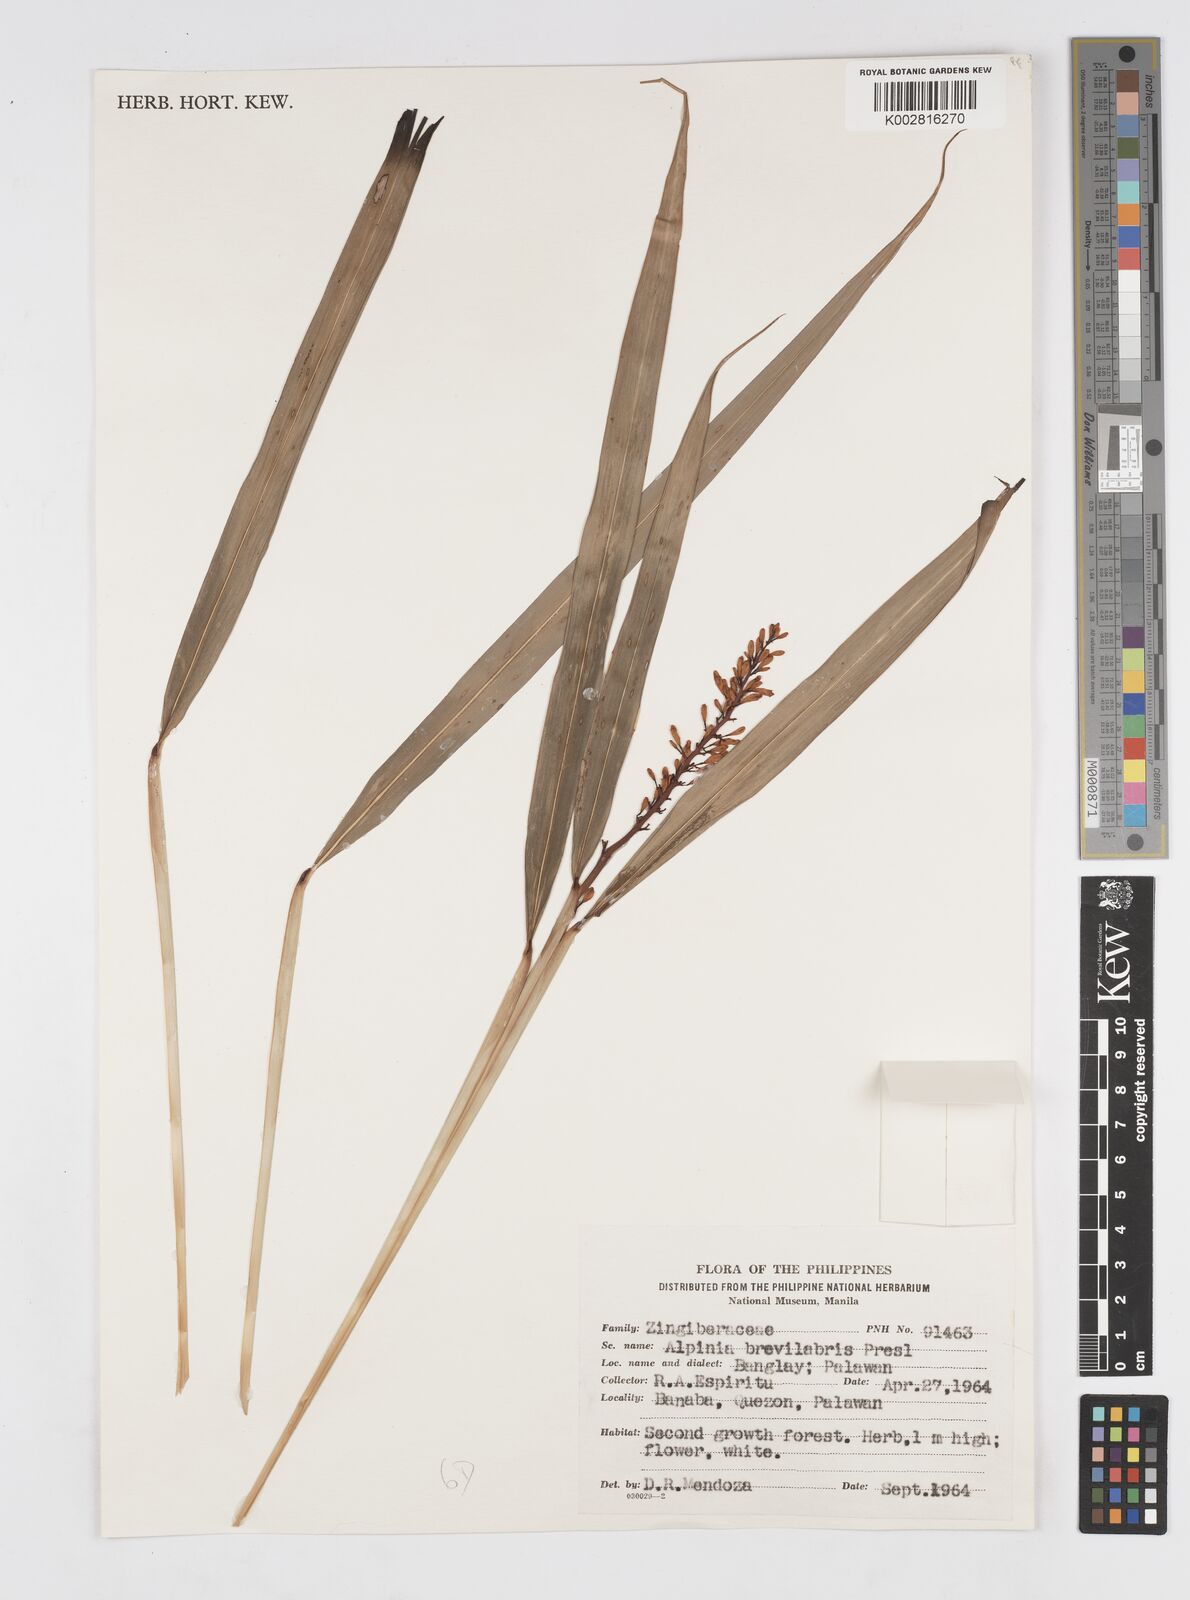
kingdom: Plantae
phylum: Tracheophyta
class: Liliopsida
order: Zingiberales
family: Zingiberaceae
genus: Alpinia
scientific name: Alpinia
